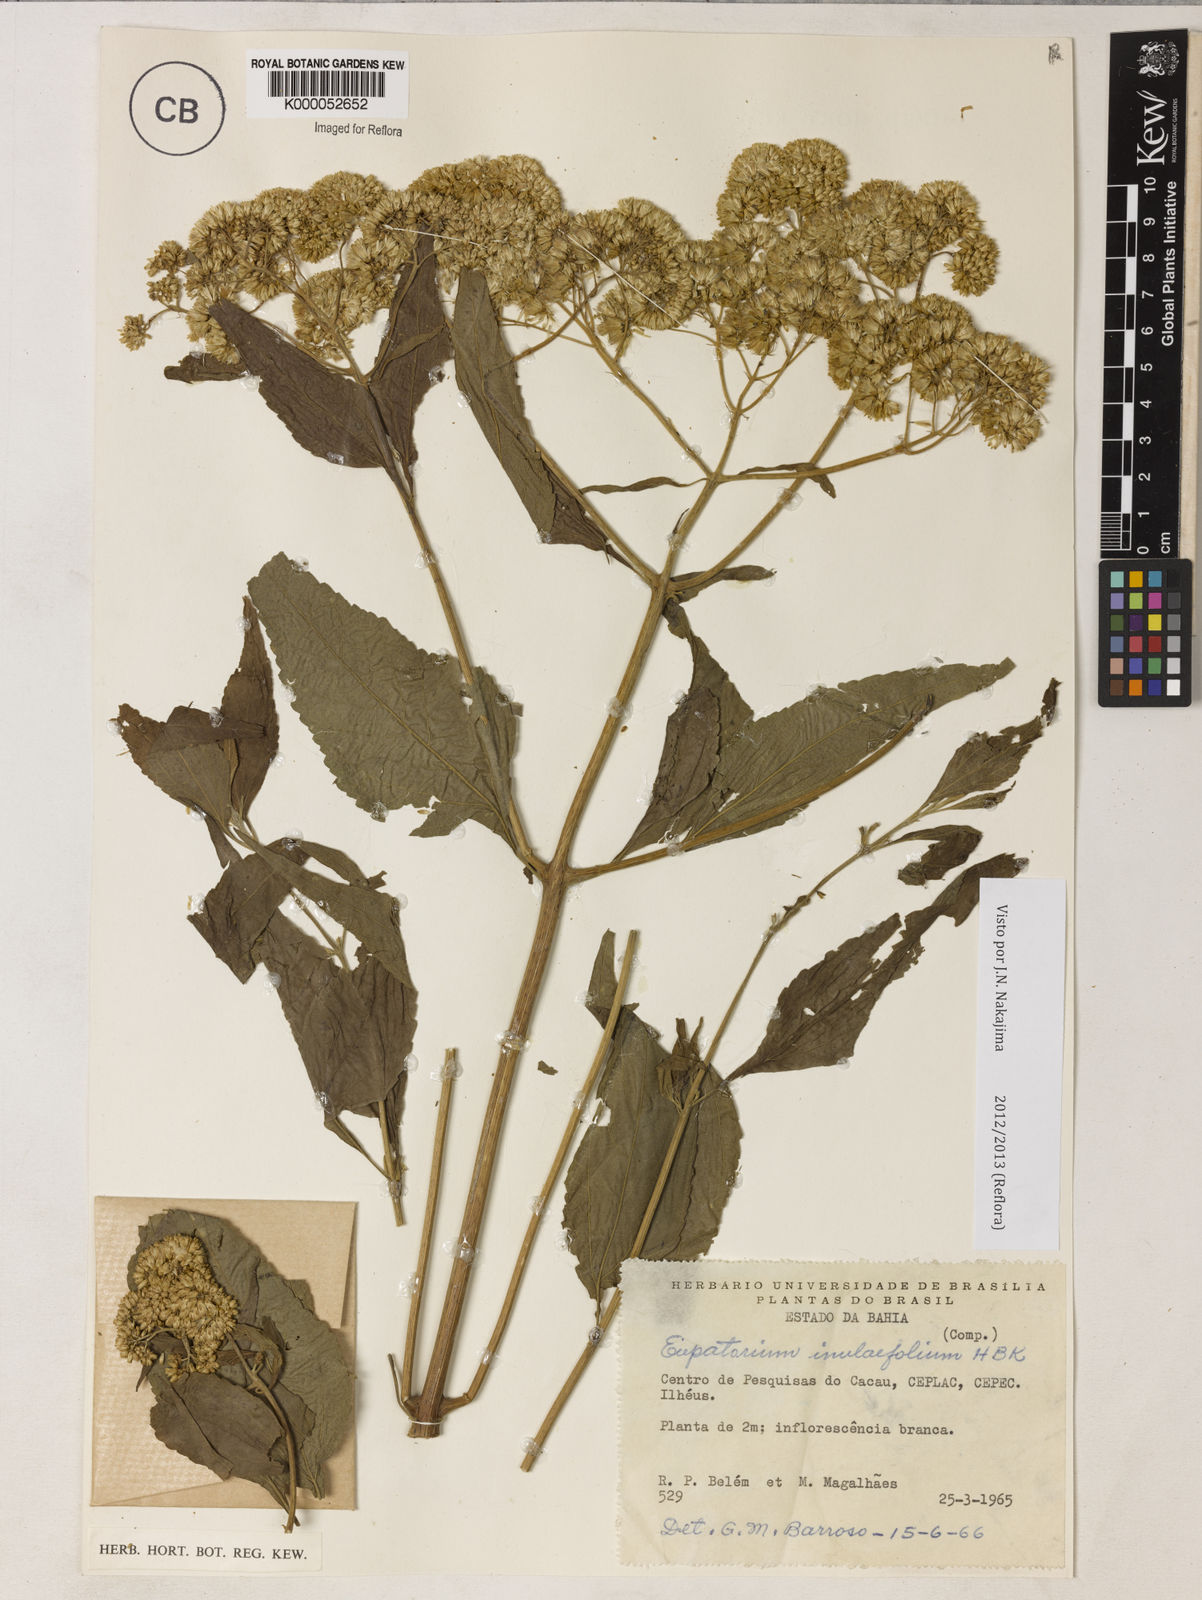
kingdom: Plantae
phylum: Tracheophyta
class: Magnoliopsida
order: Asterales
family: Asteraceae
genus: Austroeupatorium
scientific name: Austroeupatorium inulifolium
